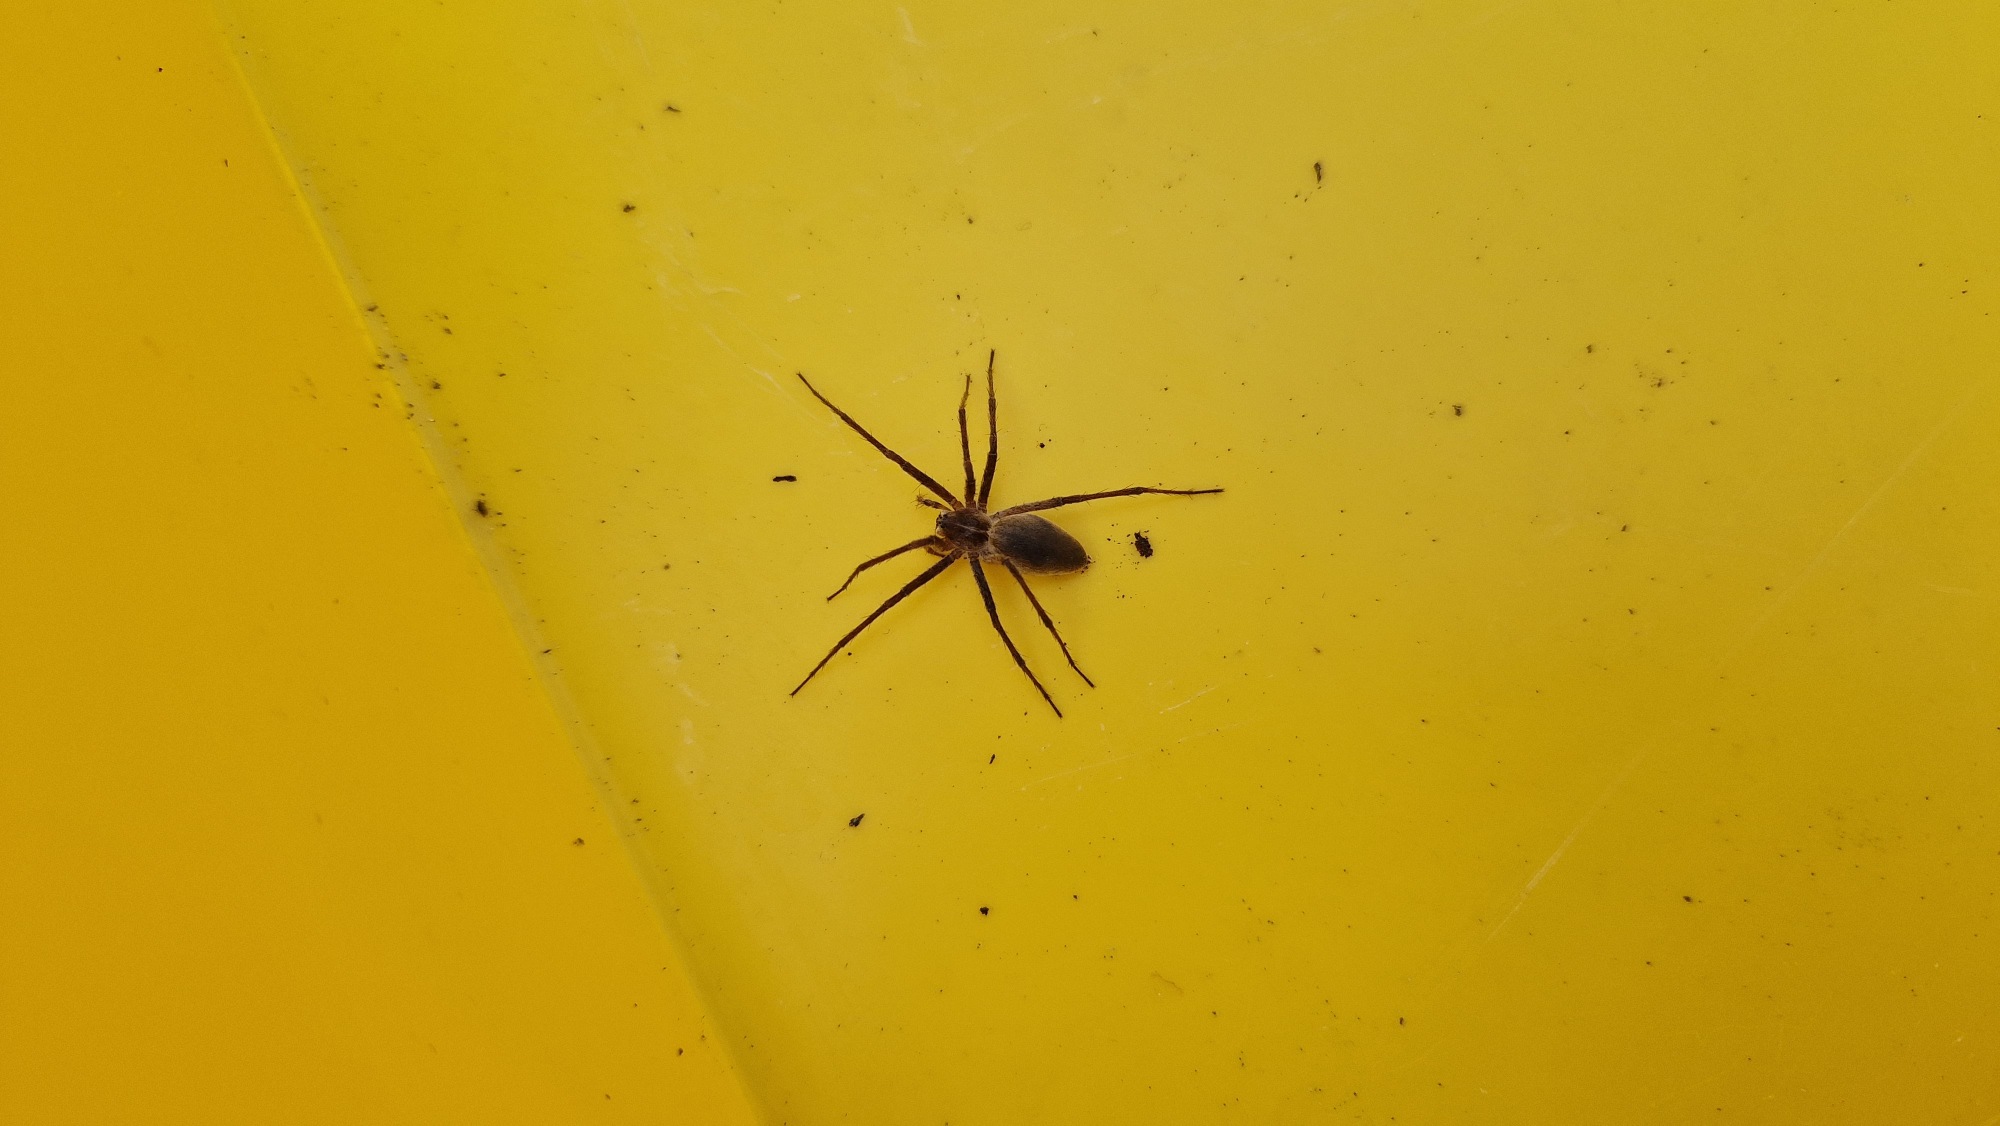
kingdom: Animalia
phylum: Arthropoda
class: Arachnida
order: Araneae
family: Pisauridae
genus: Pisaura
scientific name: Pisaura mirabilis
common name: Almindelig rovedderkop
